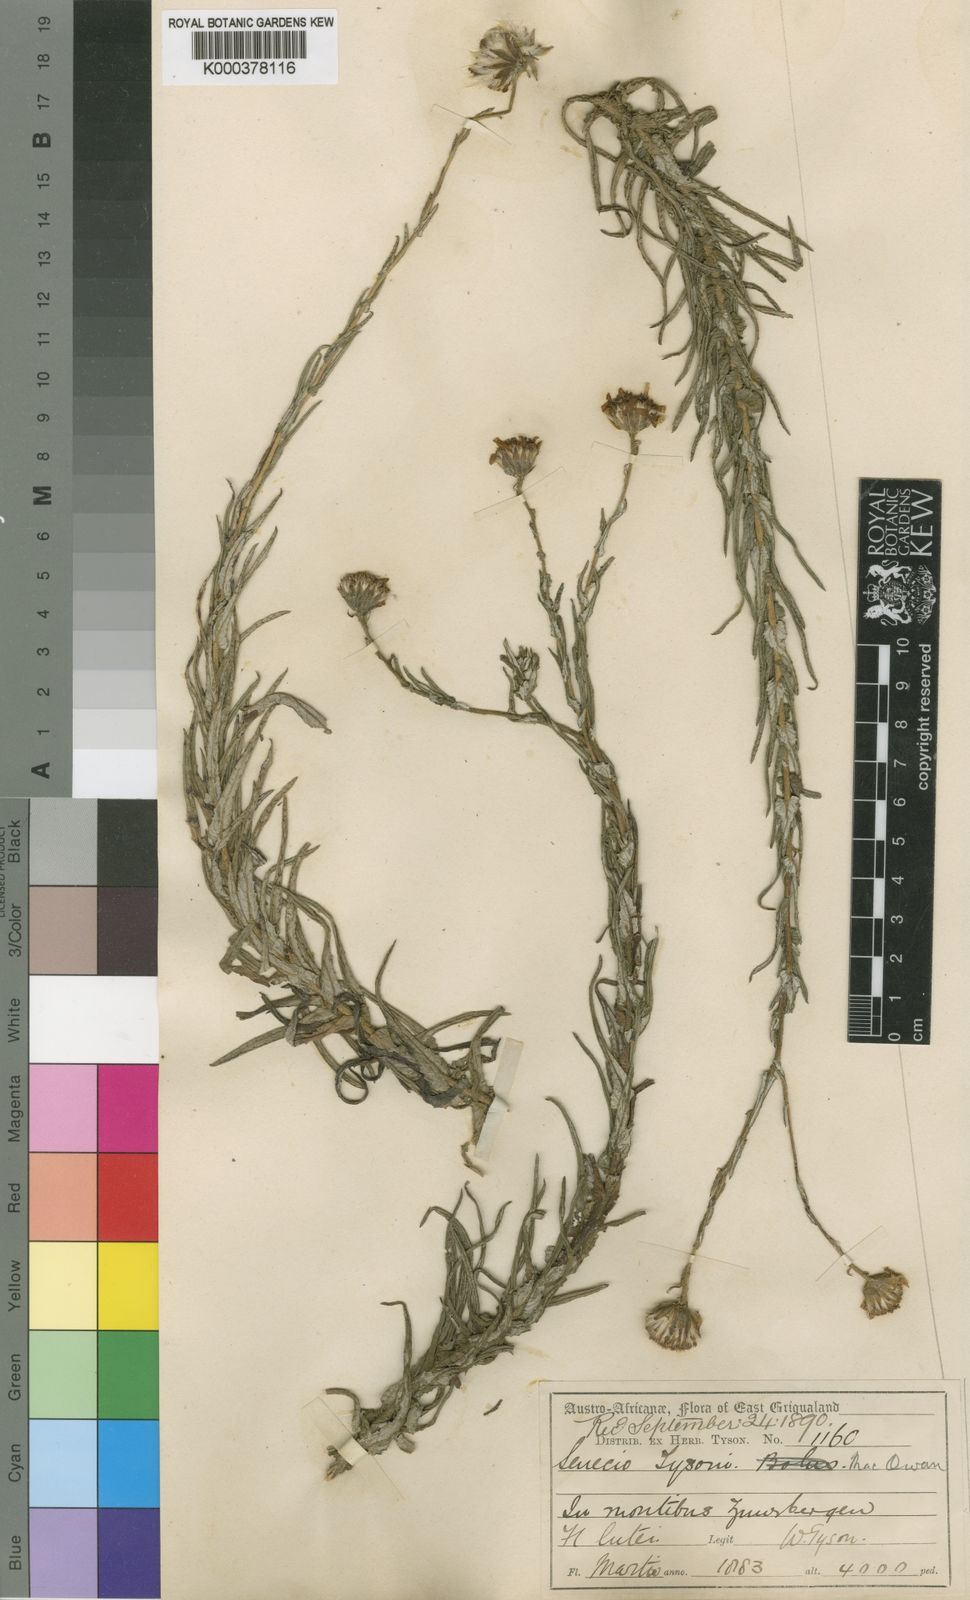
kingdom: Plantae
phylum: Tracheophyta
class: Magnoliopsida
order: Asterales
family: Asteraceae
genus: Senecio
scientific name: Senecio rigidus
